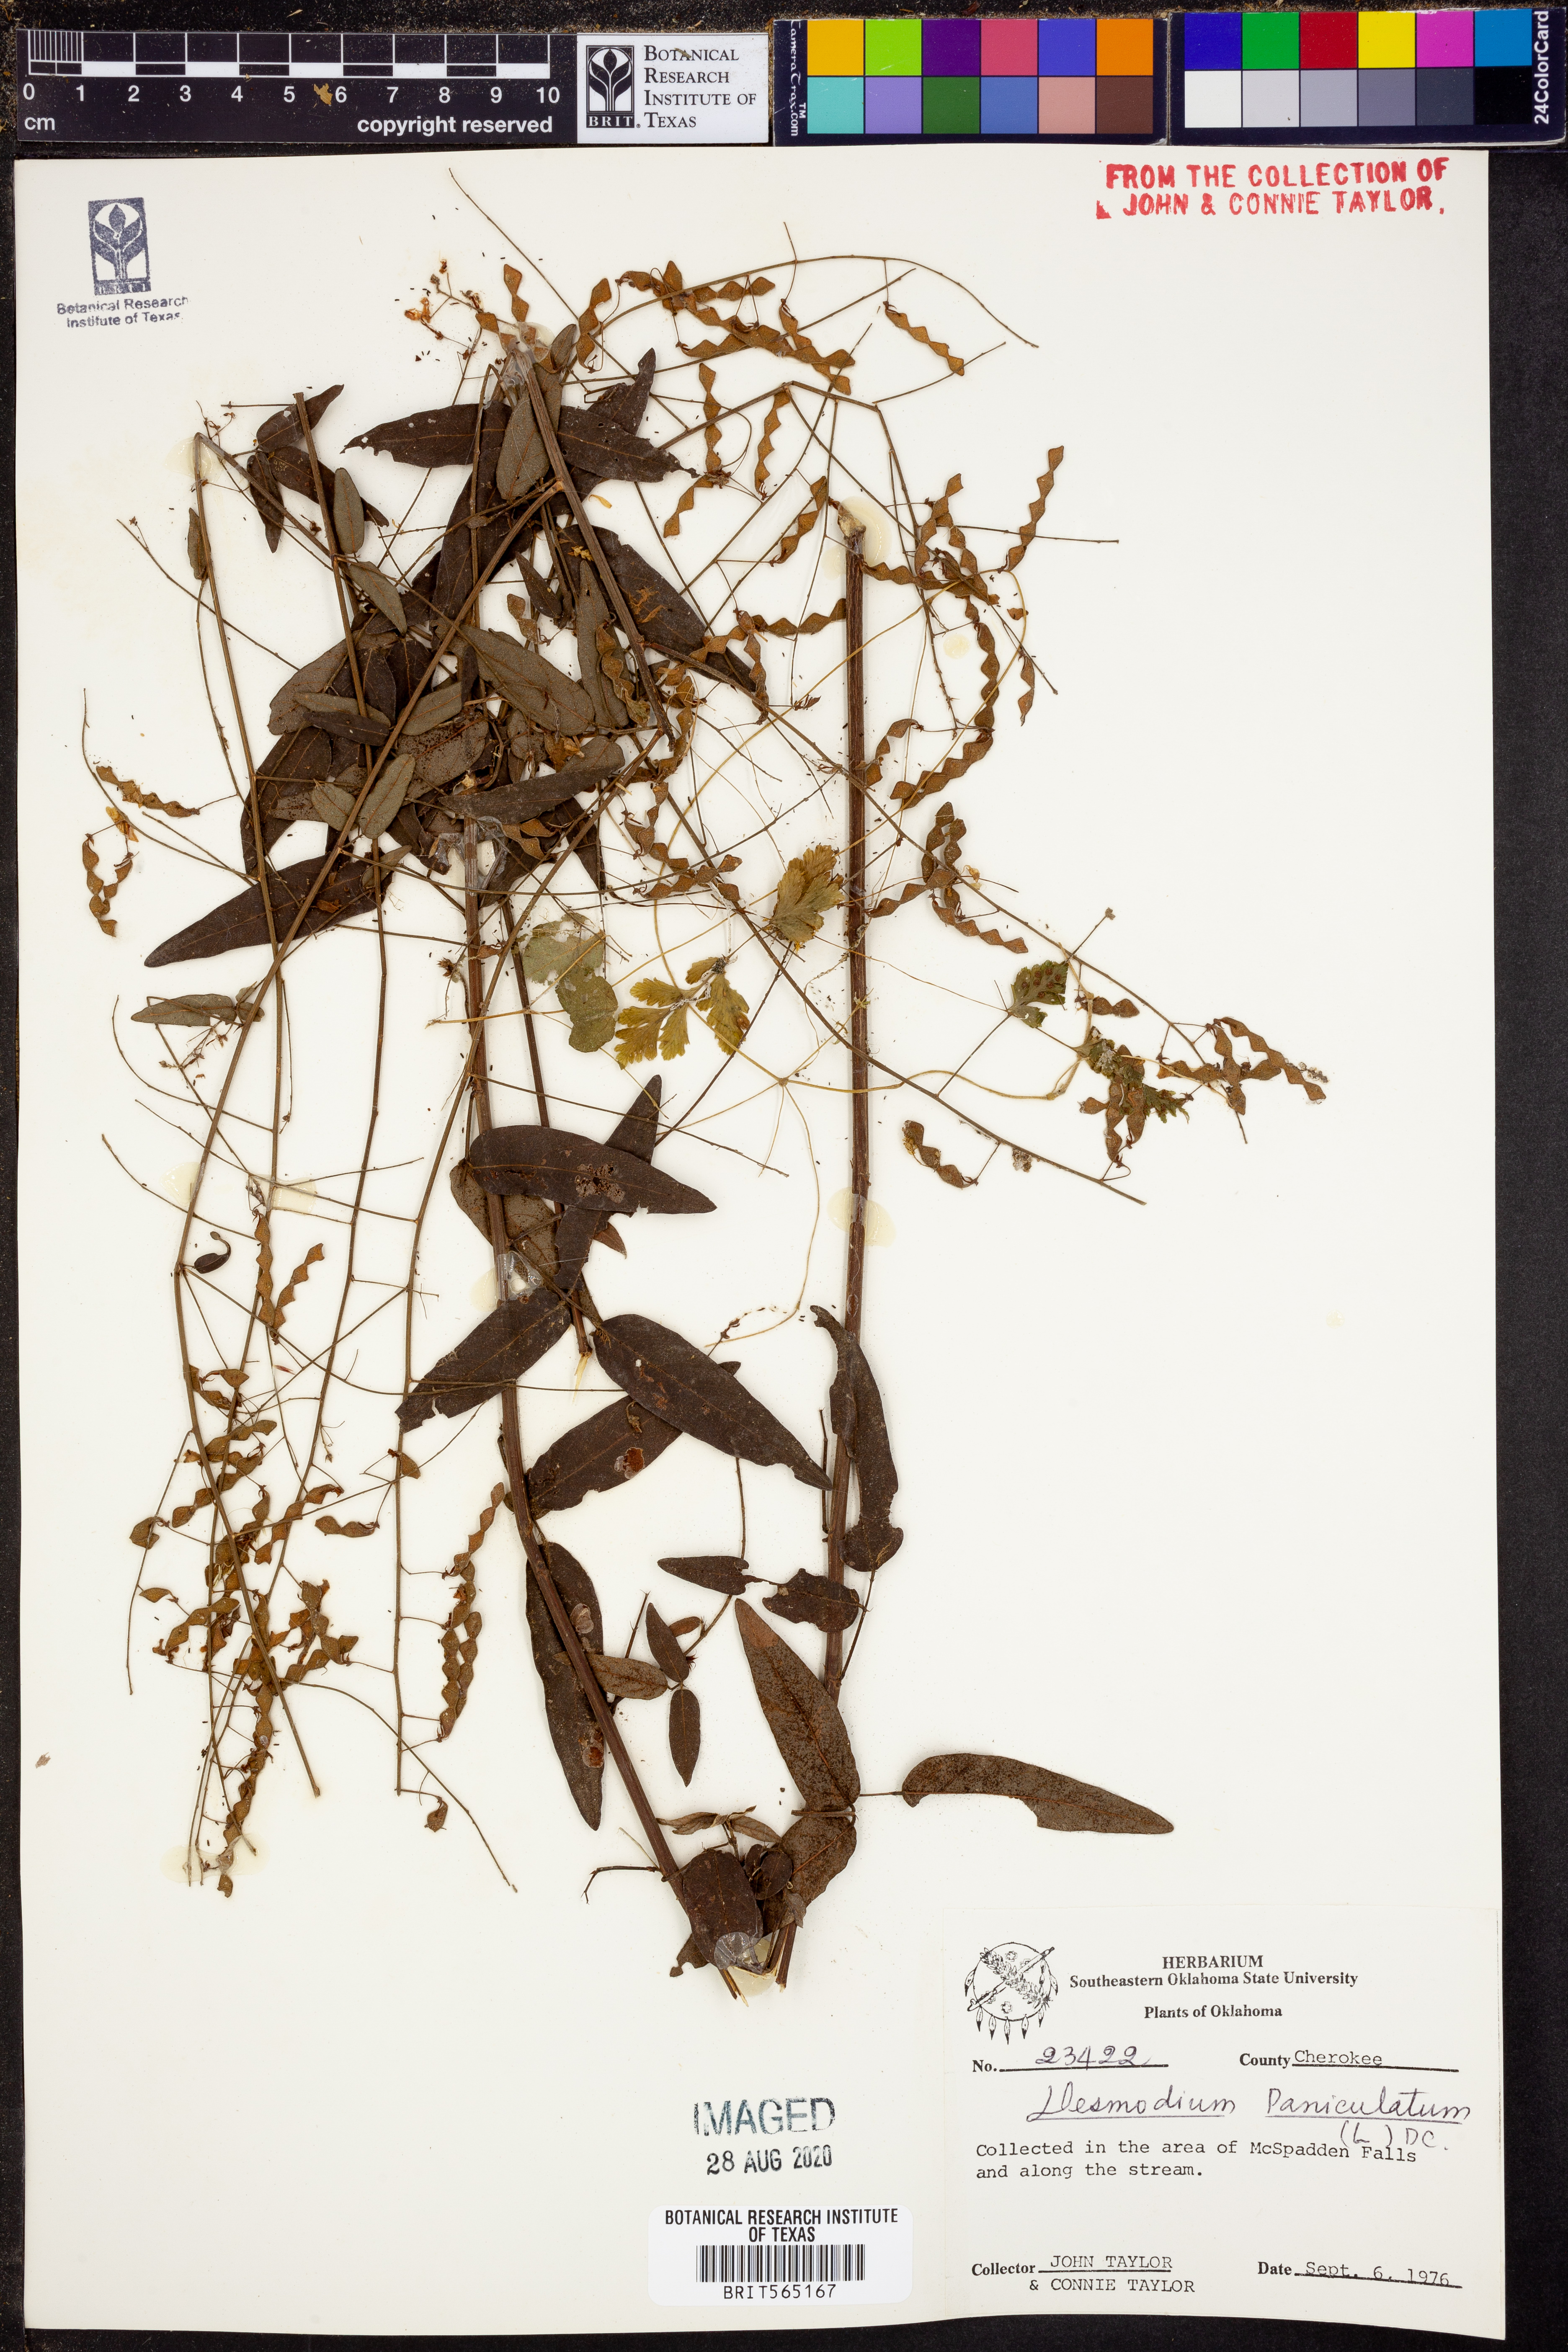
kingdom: Plantae
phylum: Tracheophyta
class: Magnoliopsida
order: Fabales
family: Fabaceae
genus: Desmodium
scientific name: Desmodium paniculatum
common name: Panicled tick-clover
